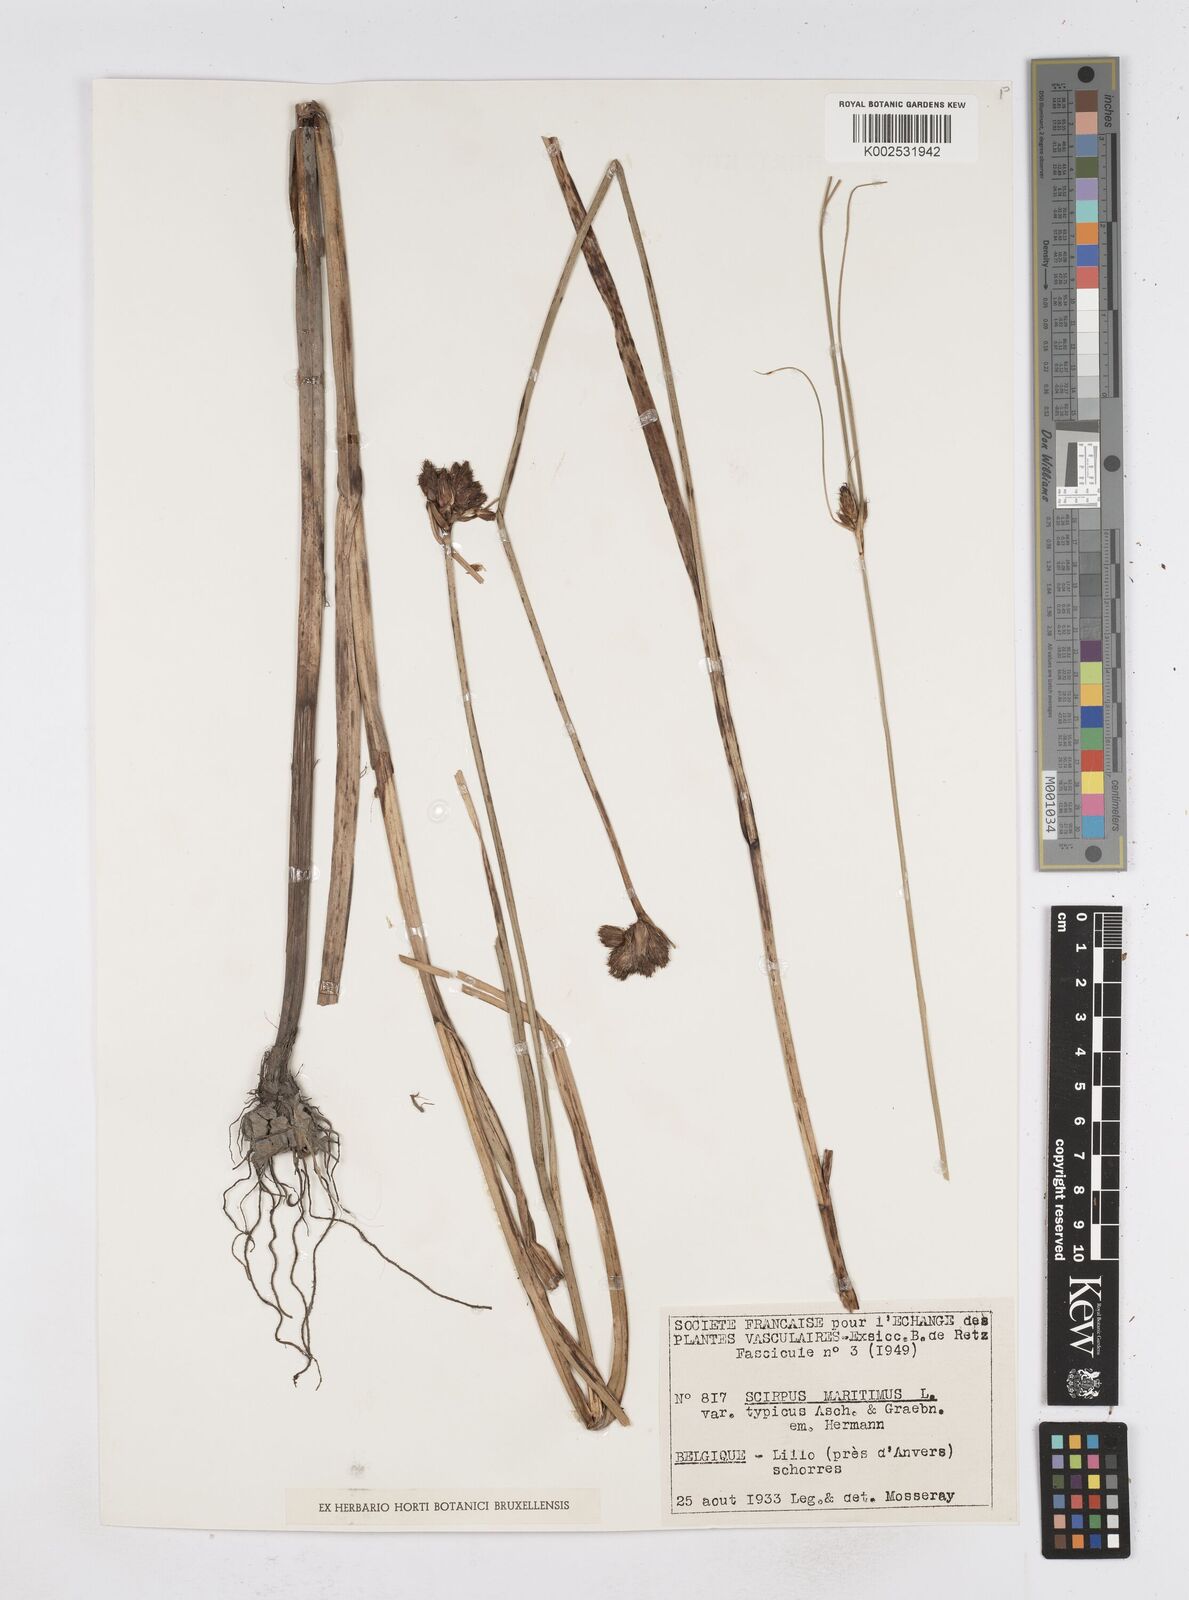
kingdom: Plantae
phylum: Tracheophyta
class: Liliopsida
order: Poales
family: Cyperaceae
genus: Bolboschoenus
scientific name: Bolboschoenus maritimus
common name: Sea club-rush
